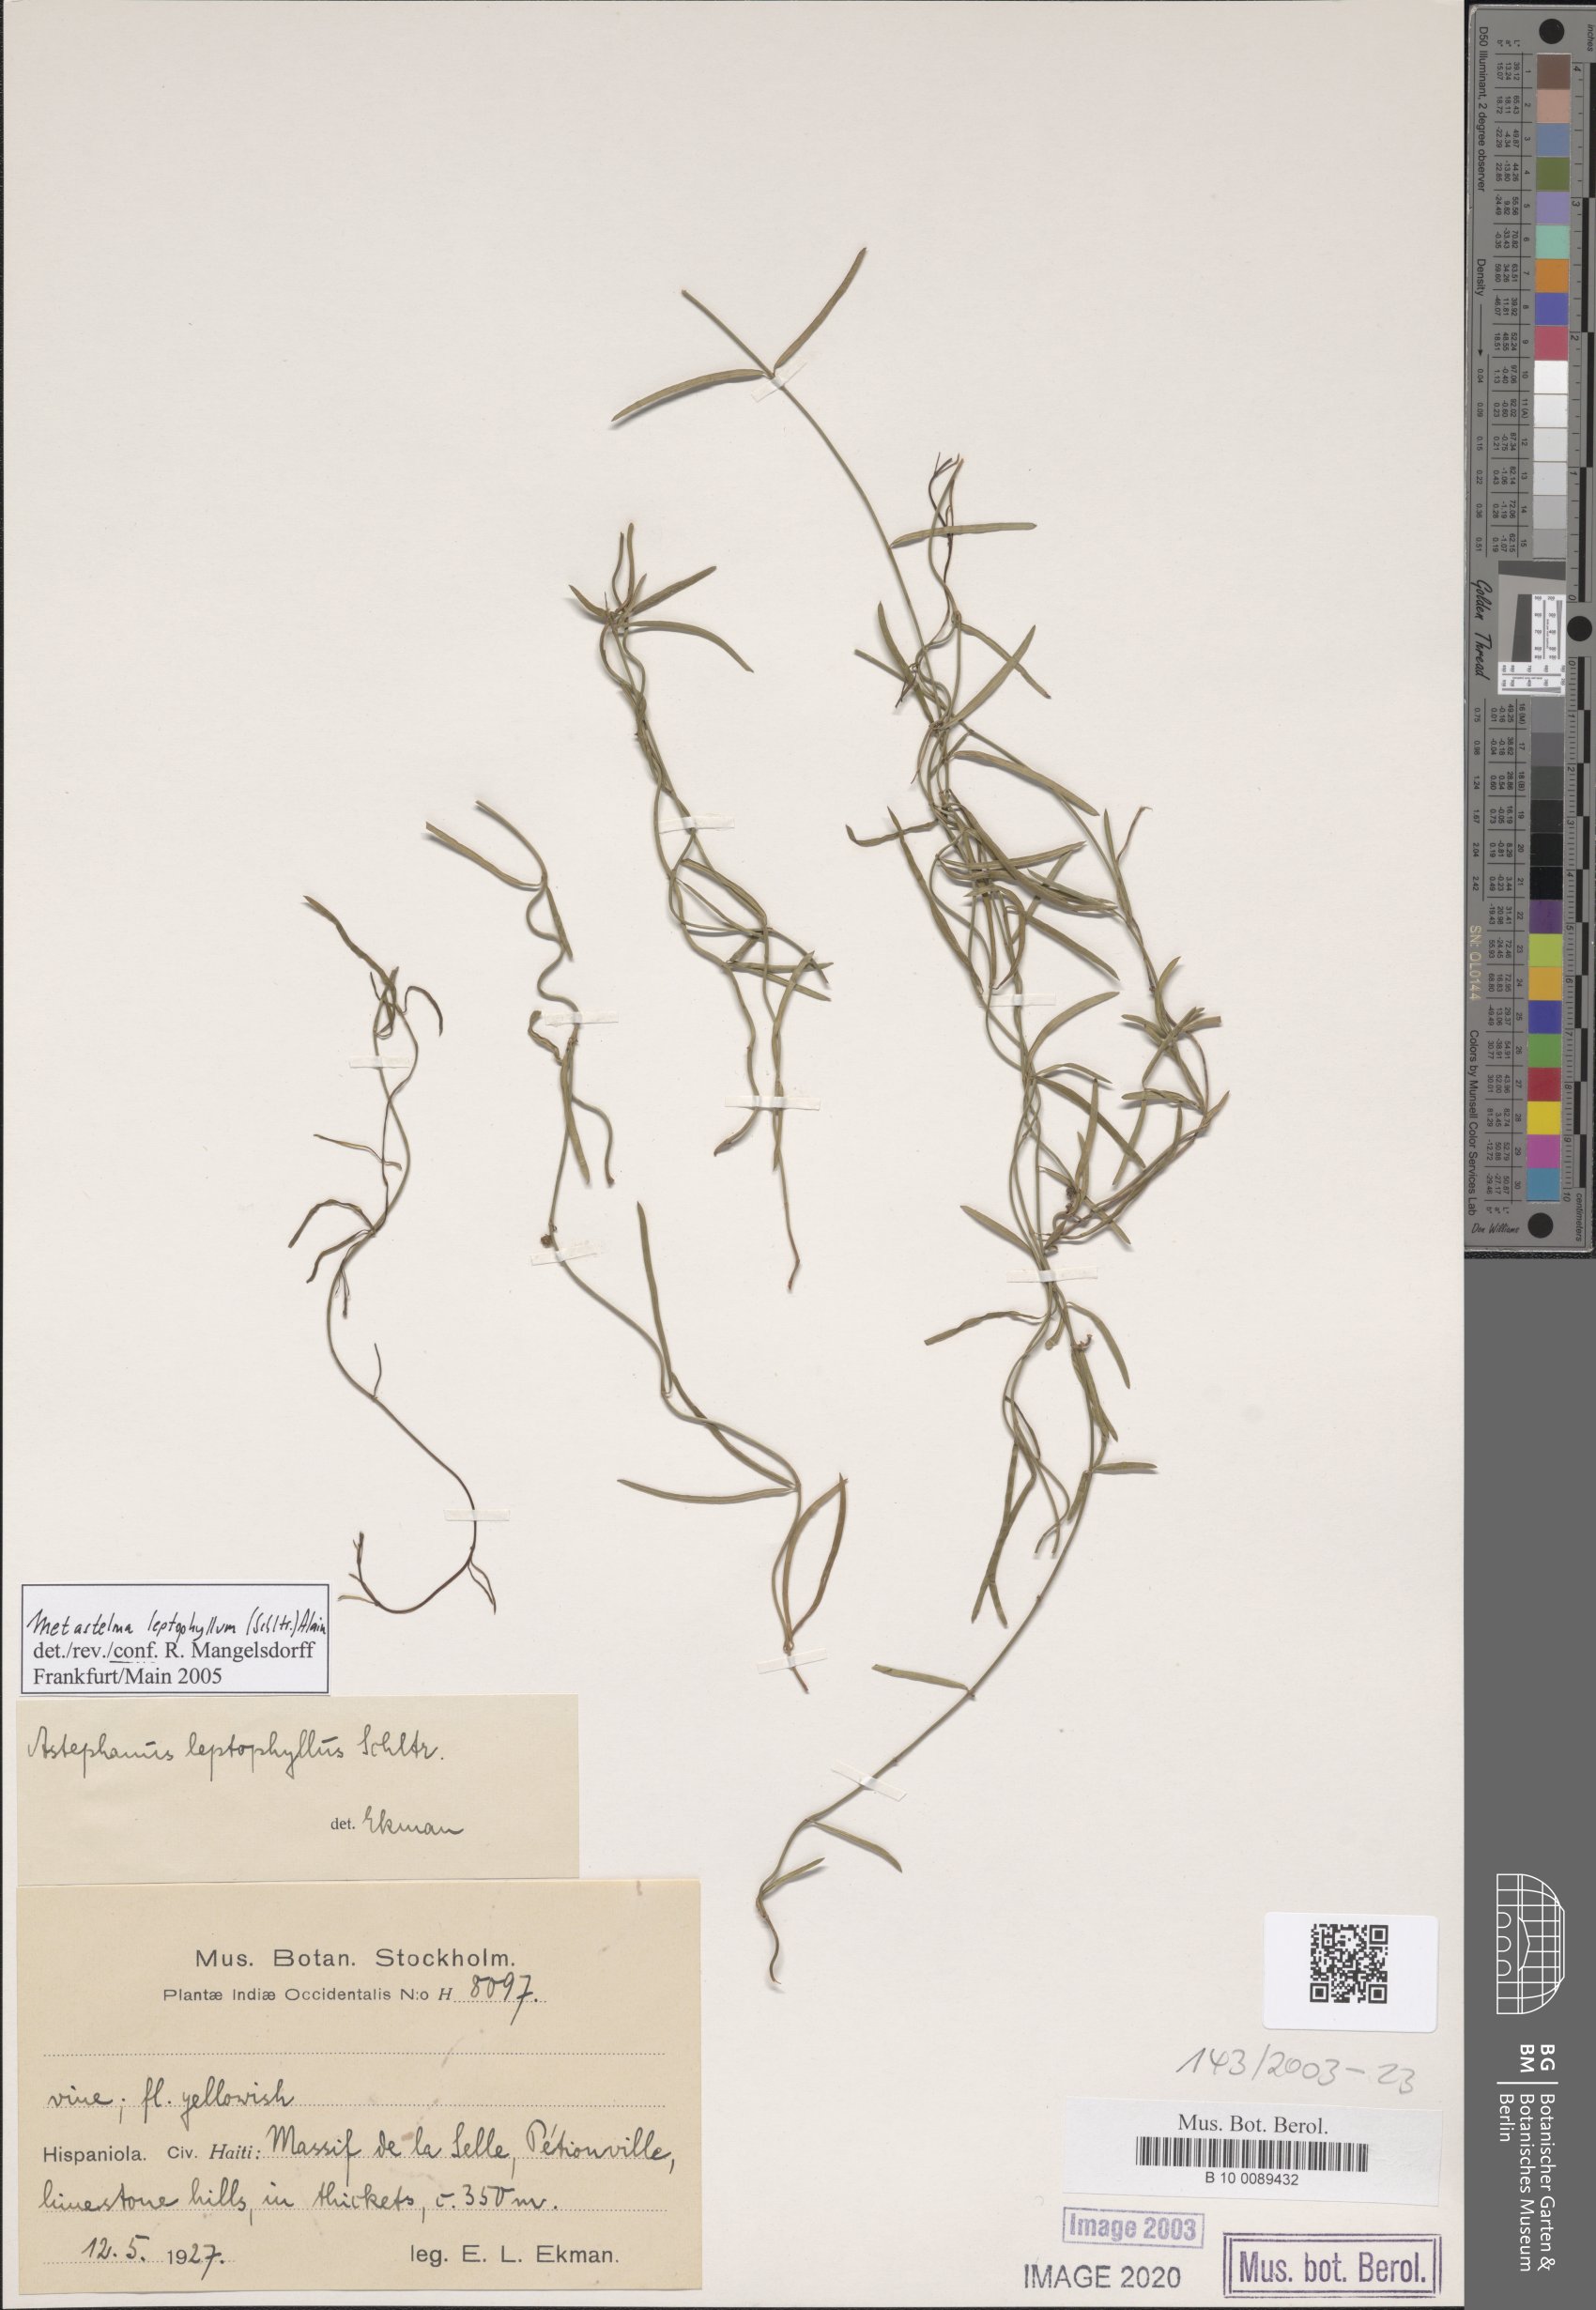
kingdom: Plantae
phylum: Tracheophyta
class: Magnoliopsida
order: Gentianales
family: Apocynaceae
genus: Metastelma
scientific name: Metastelma leptophyllum
